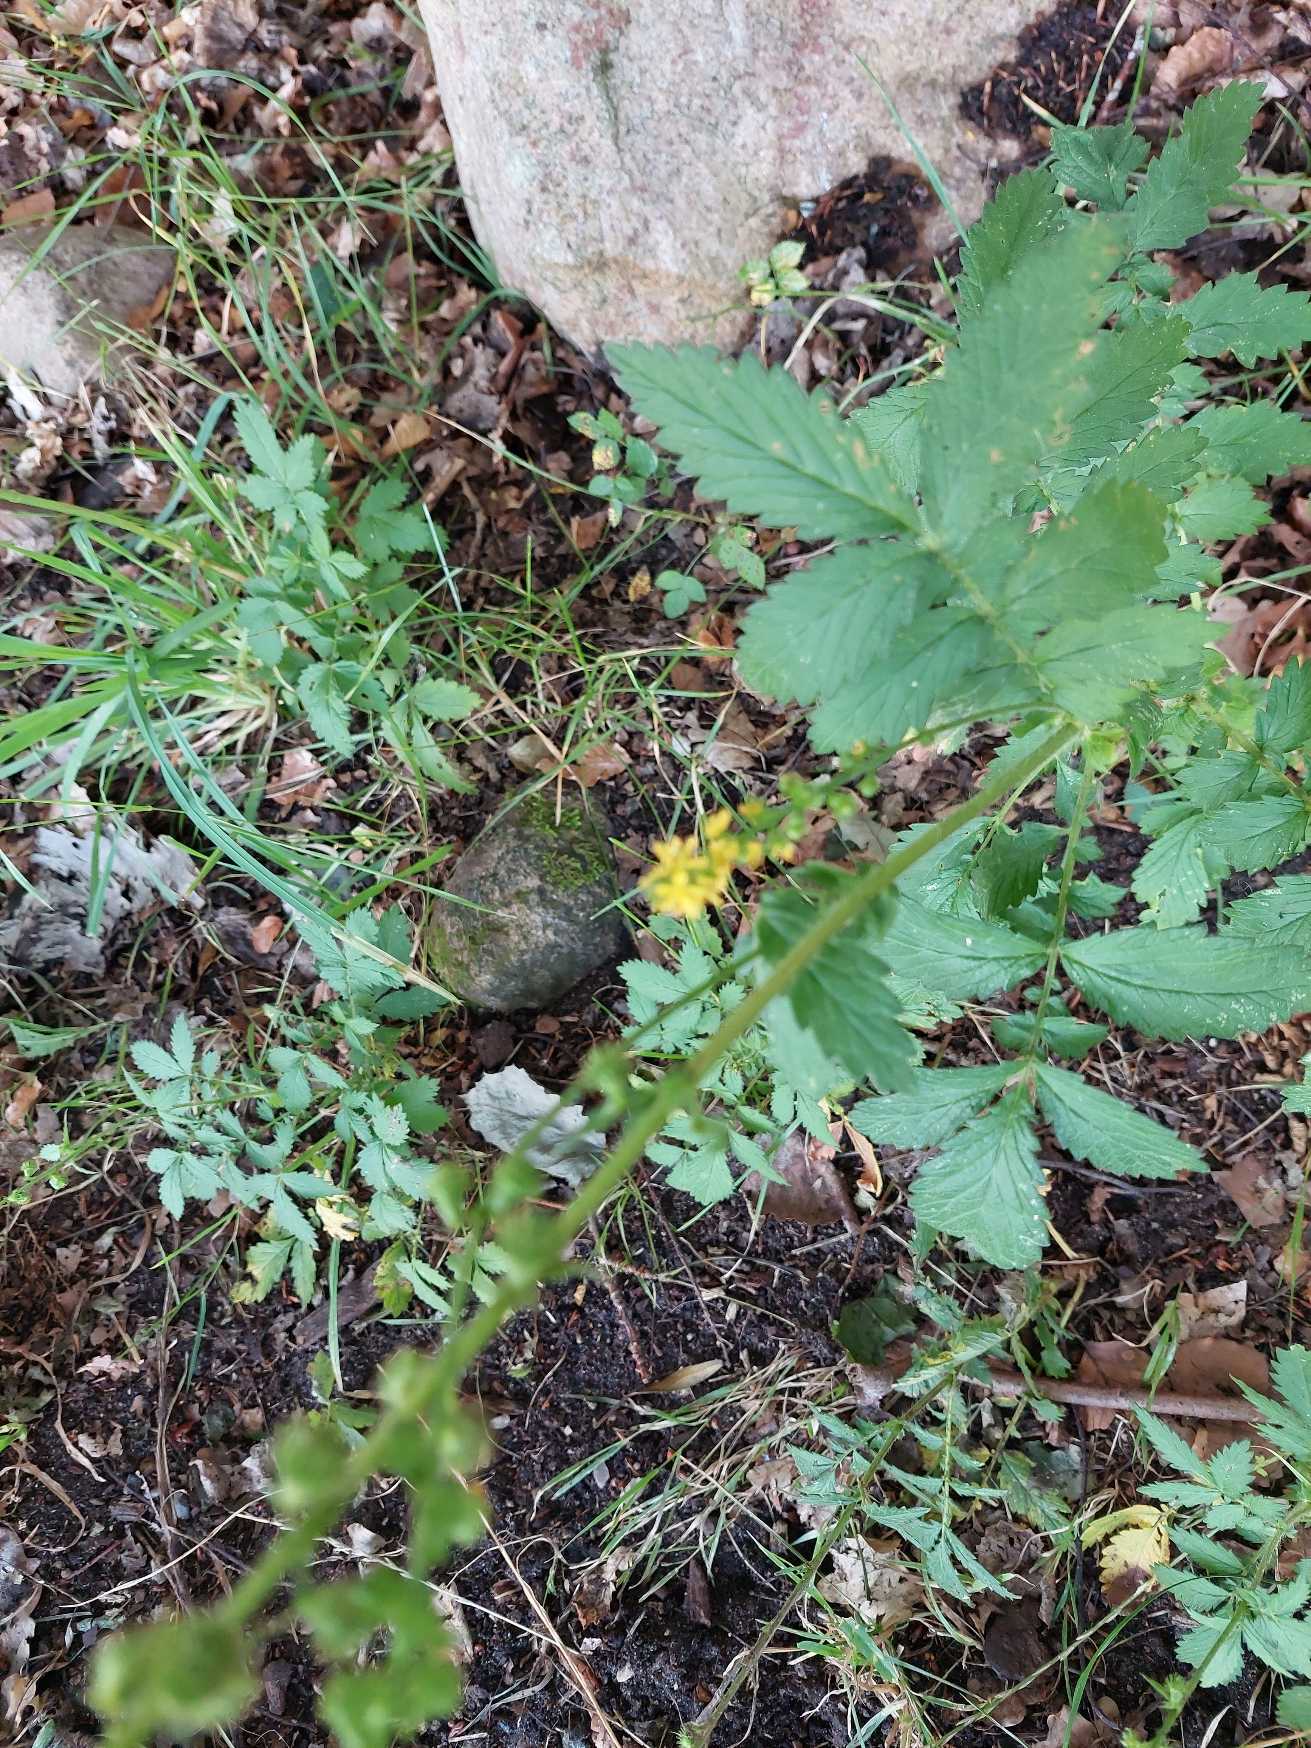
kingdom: Plantae
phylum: Tracheophyta
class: Magnoliopsida
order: Rosales
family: Rosaceae
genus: Agrimonia
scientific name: Agrimonia
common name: Agermåneslægten
